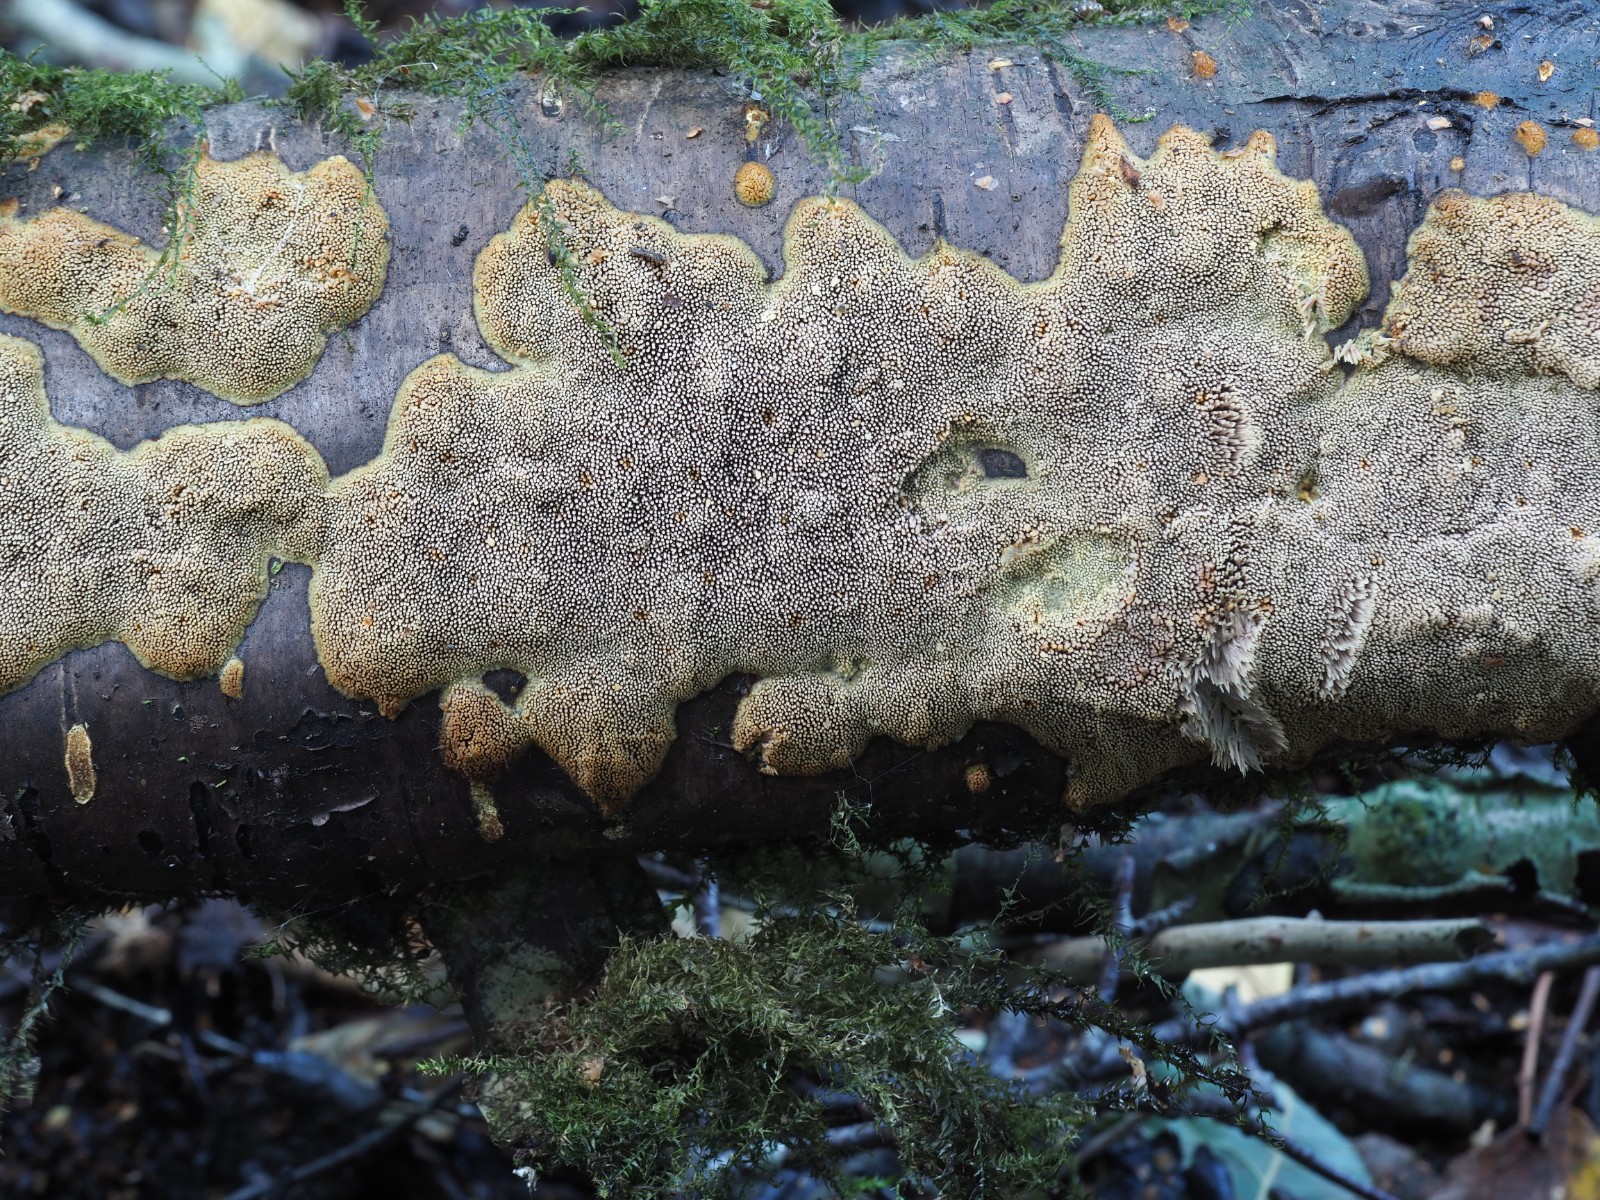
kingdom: Fungi
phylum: Basidiomycota
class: Agaricomycetes
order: Polyporales
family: Meruliaceae
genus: Mycoaciella
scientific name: Mycoaciella bispora
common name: stalaktit-vokspig
